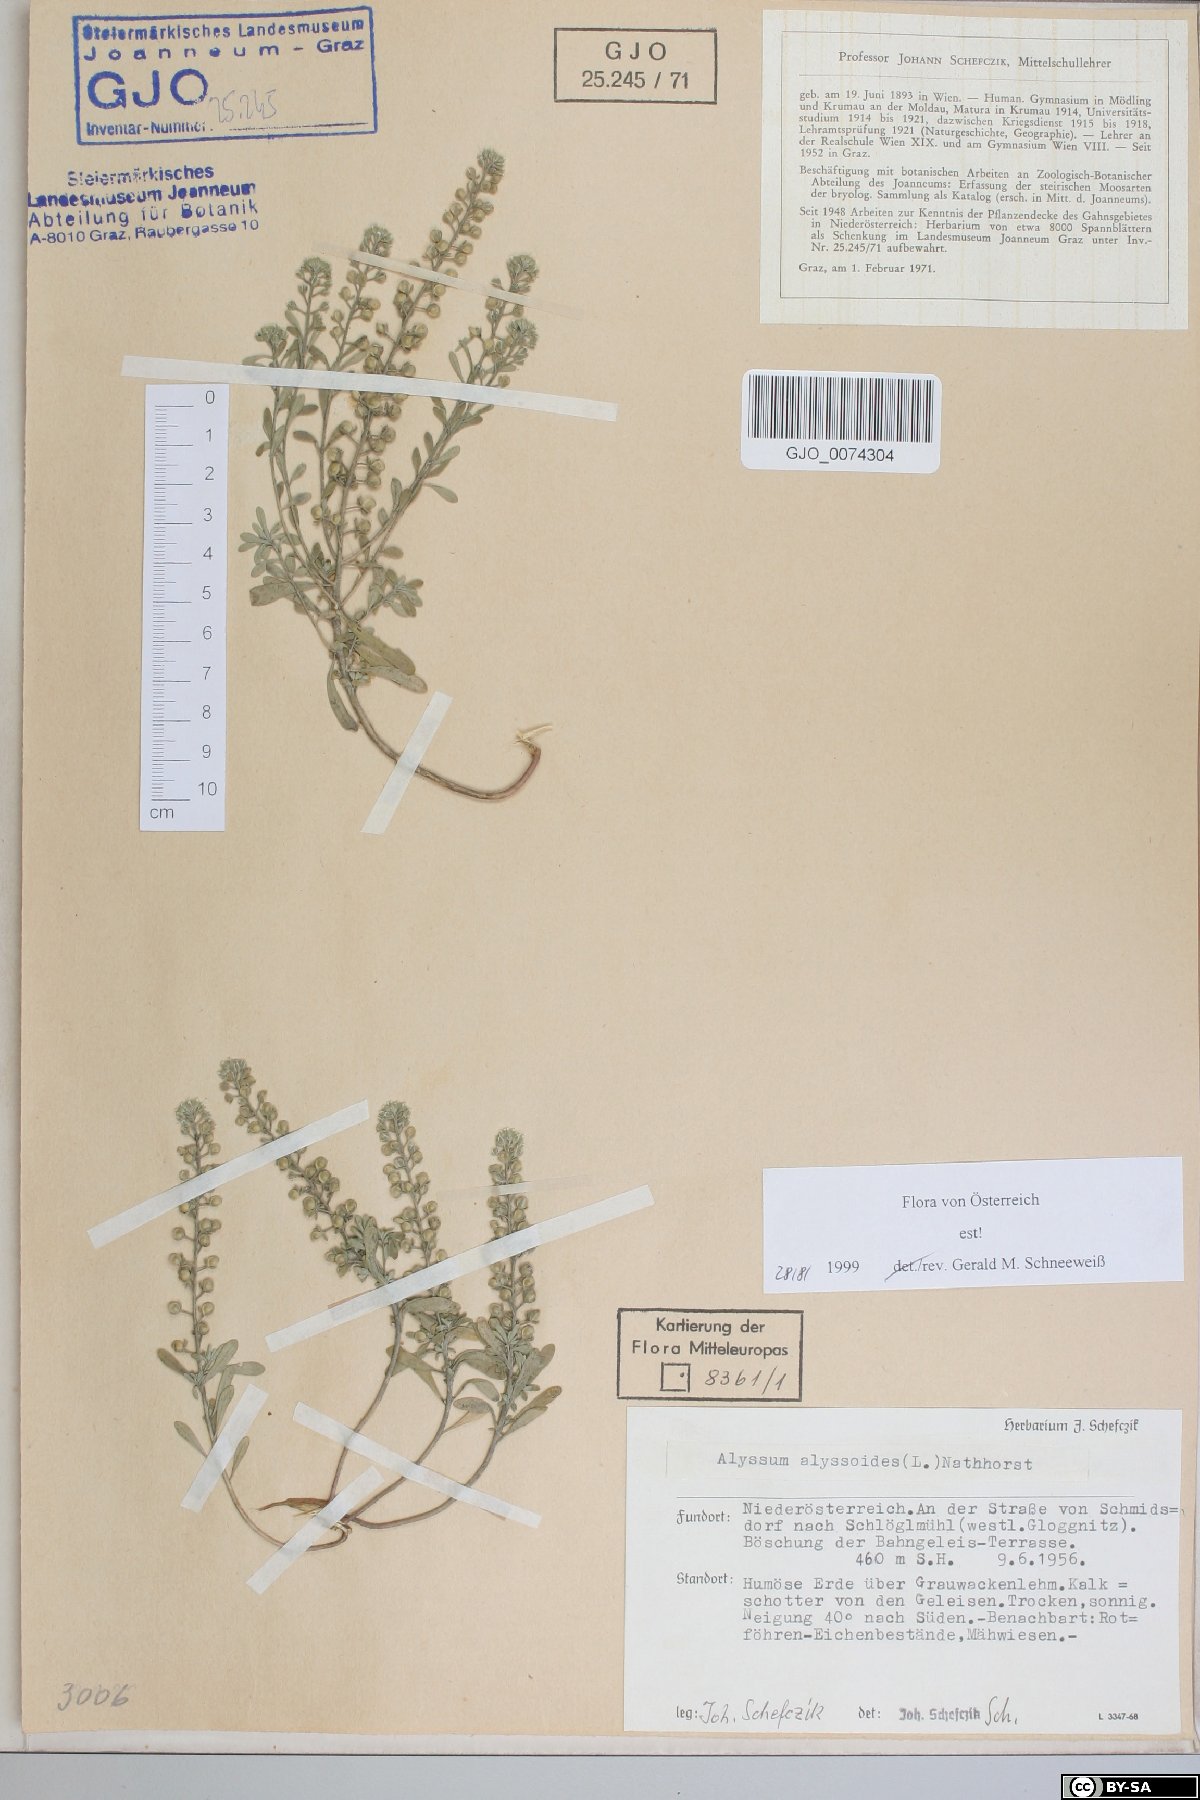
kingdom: Plantae
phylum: Tracheophyta
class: Magnoliopsida
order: Brassicales
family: Brassicaceae
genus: Alyssum
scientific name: Alyssum alyssoides
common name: Small alison
